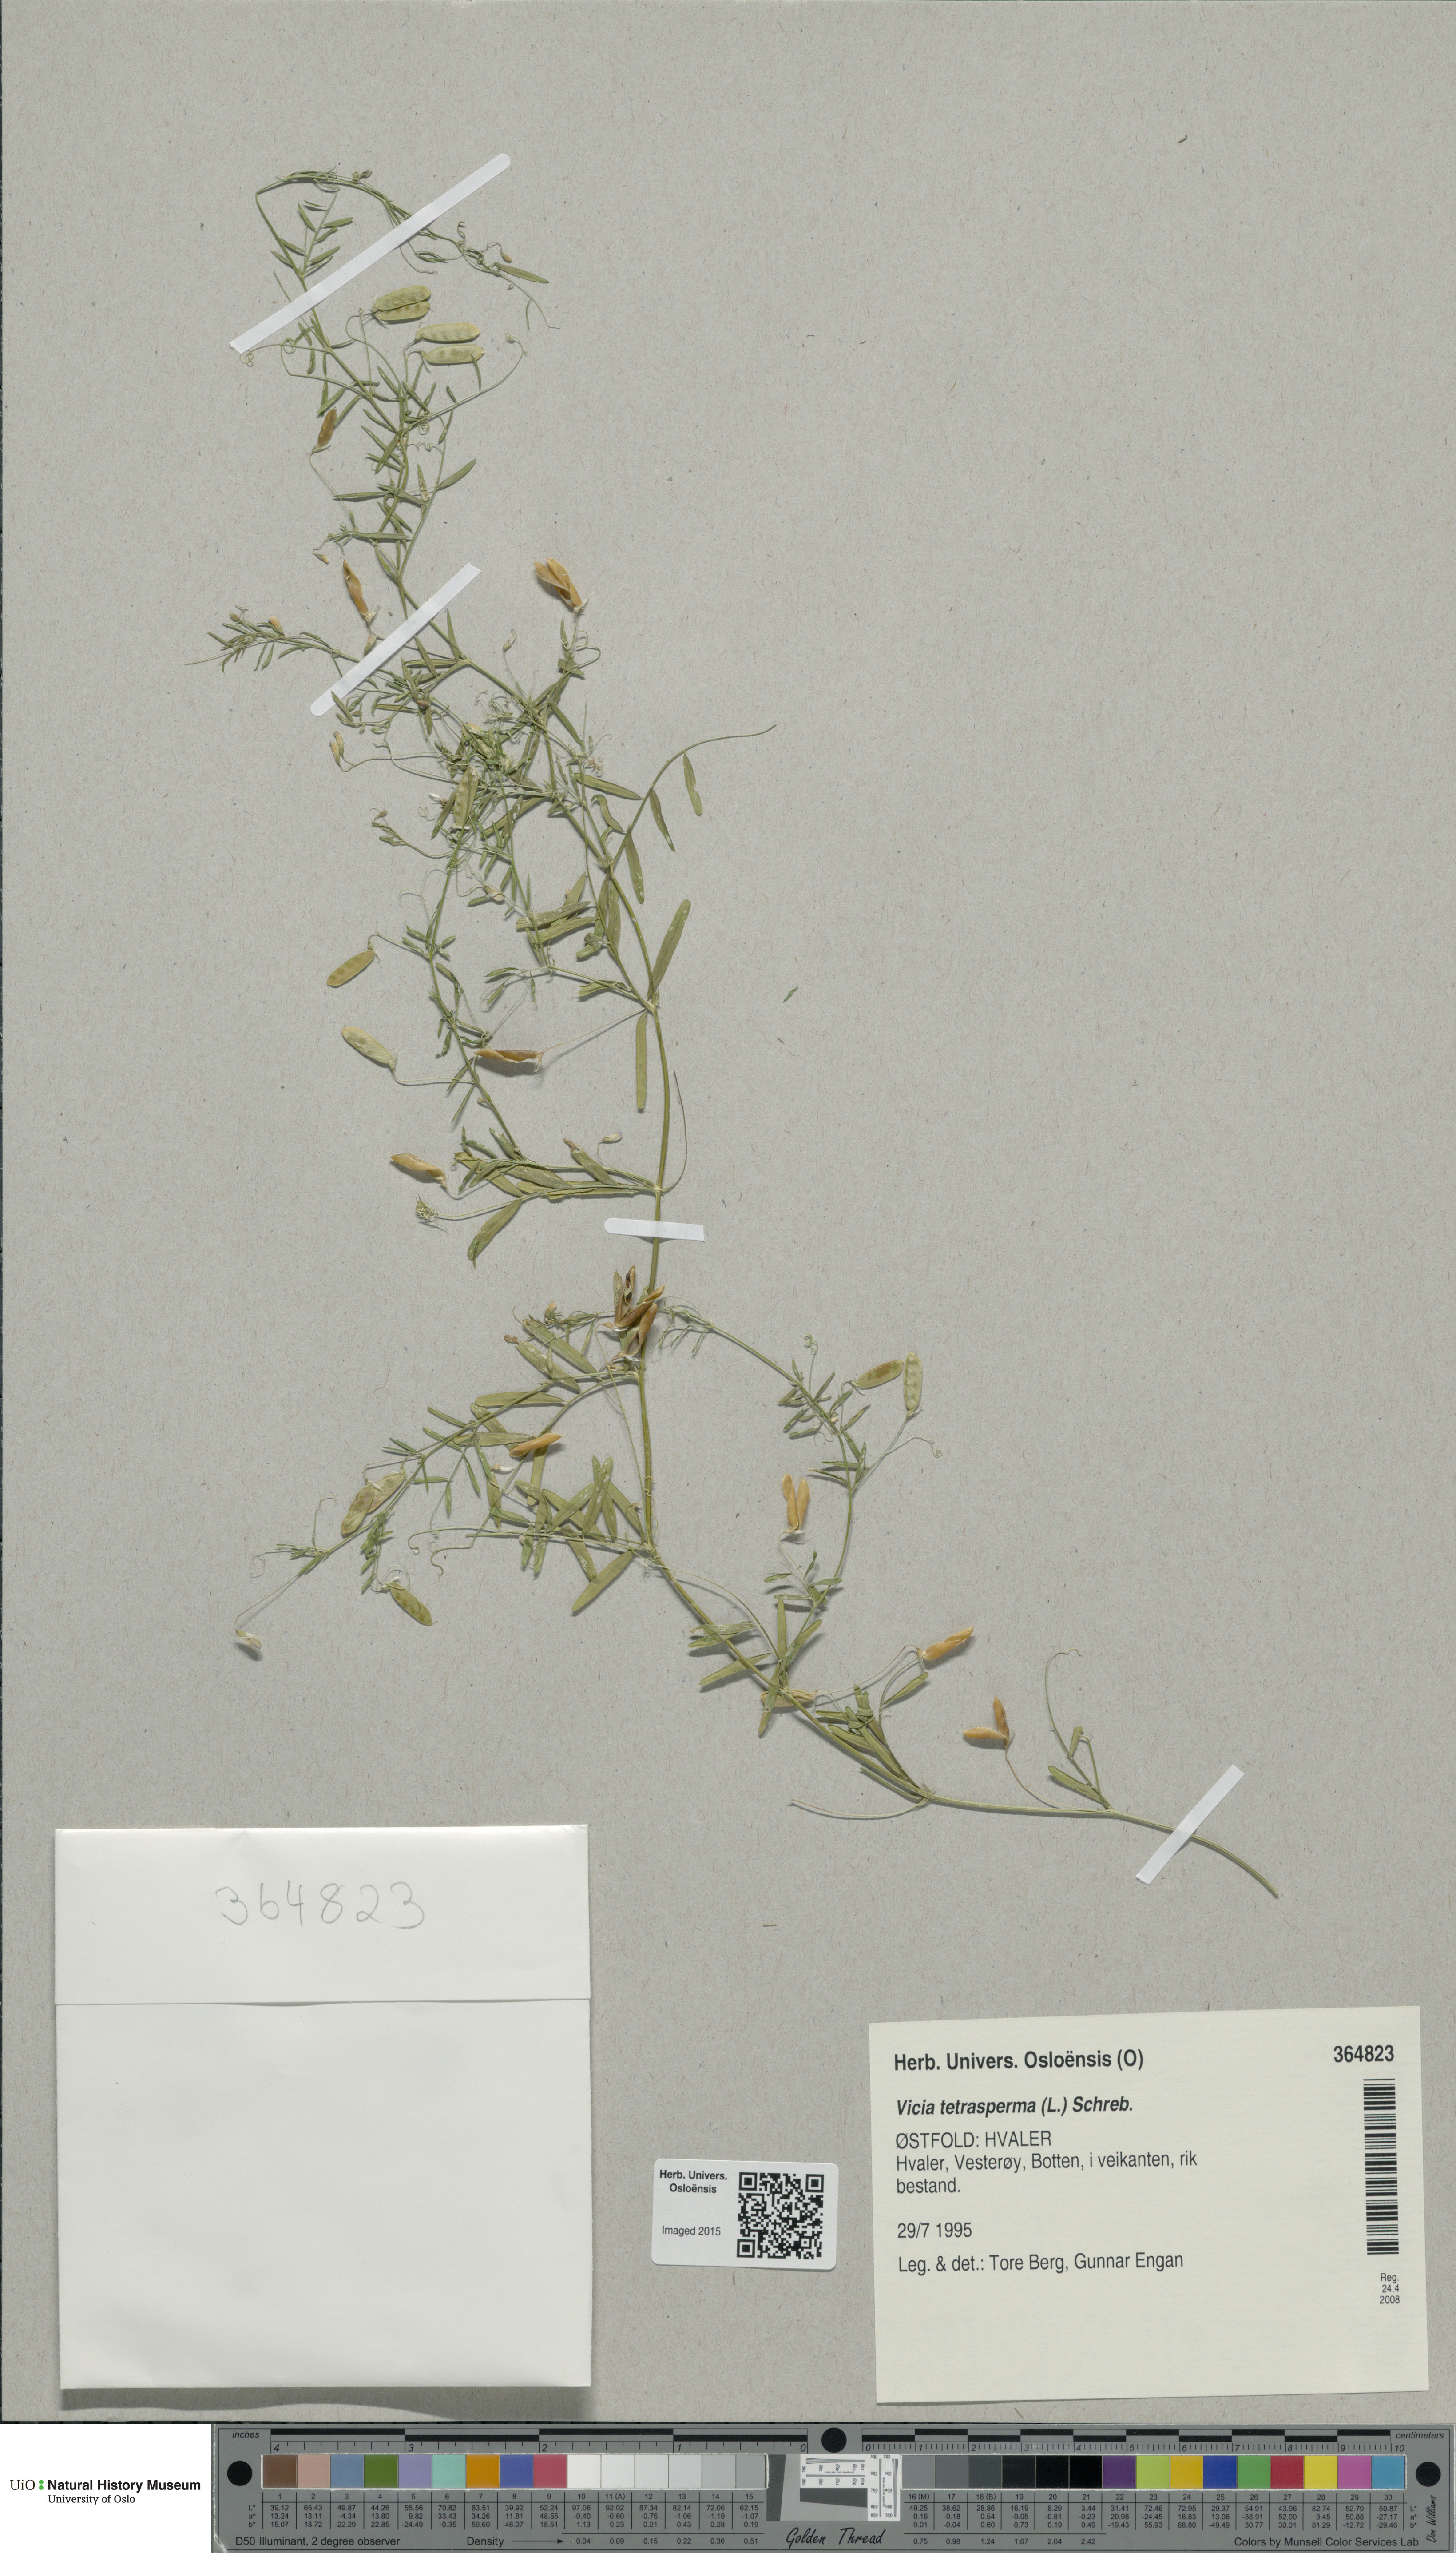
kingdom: Plantae
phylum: Tracheophyta
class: Magnoliopsida
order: Fabales
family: Fabaceae
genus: Vicia
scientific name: Vicia tetrasperma
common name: Smooth tare
